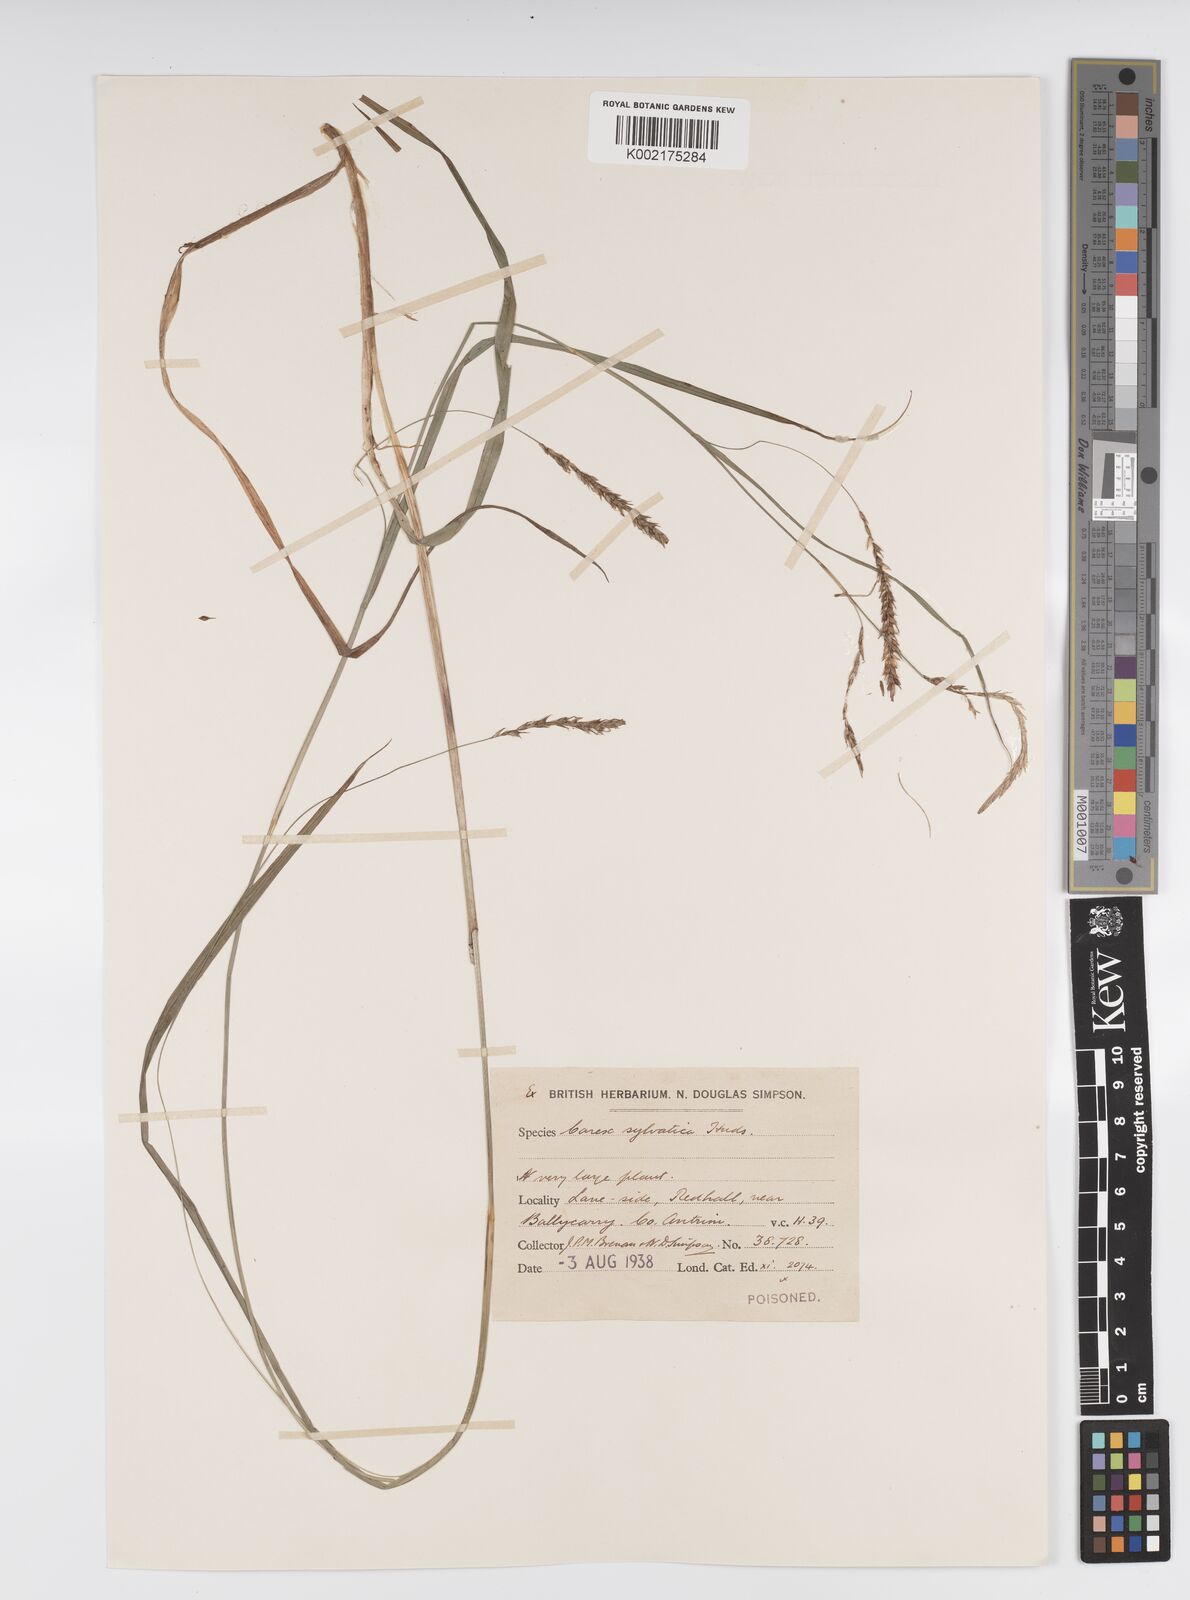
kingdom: Plantae
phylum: Tracheophyta
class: Liliopsida
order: Poales
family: Cyperaceae
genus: Carex
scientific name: Carex sylvatica
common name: Wood-sedge
